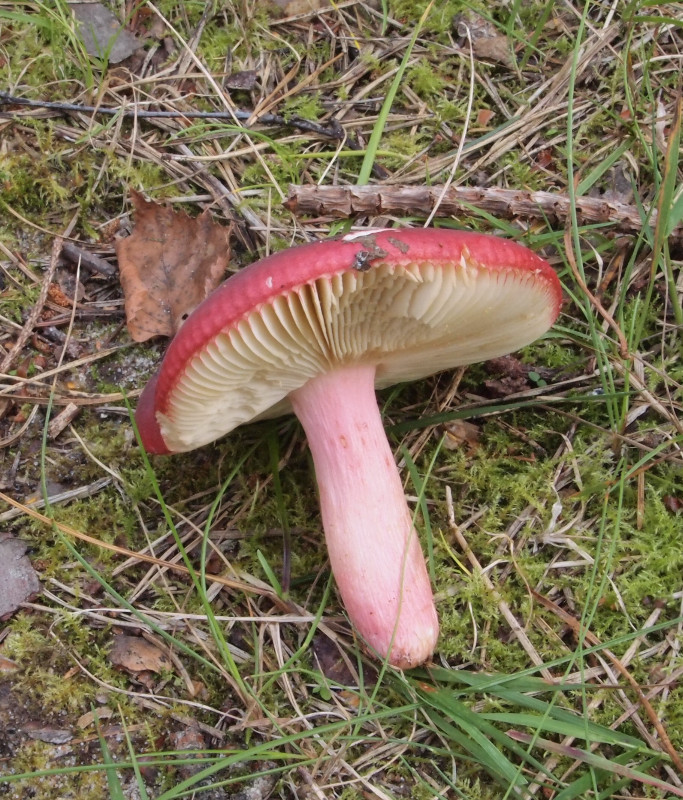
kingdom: Fungi
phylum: Basidiomycota
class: Agaricomycetes
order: Russulales
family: Russulaceae
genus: Russula
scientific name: Russula xerampelina
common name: hummer-skørhat
